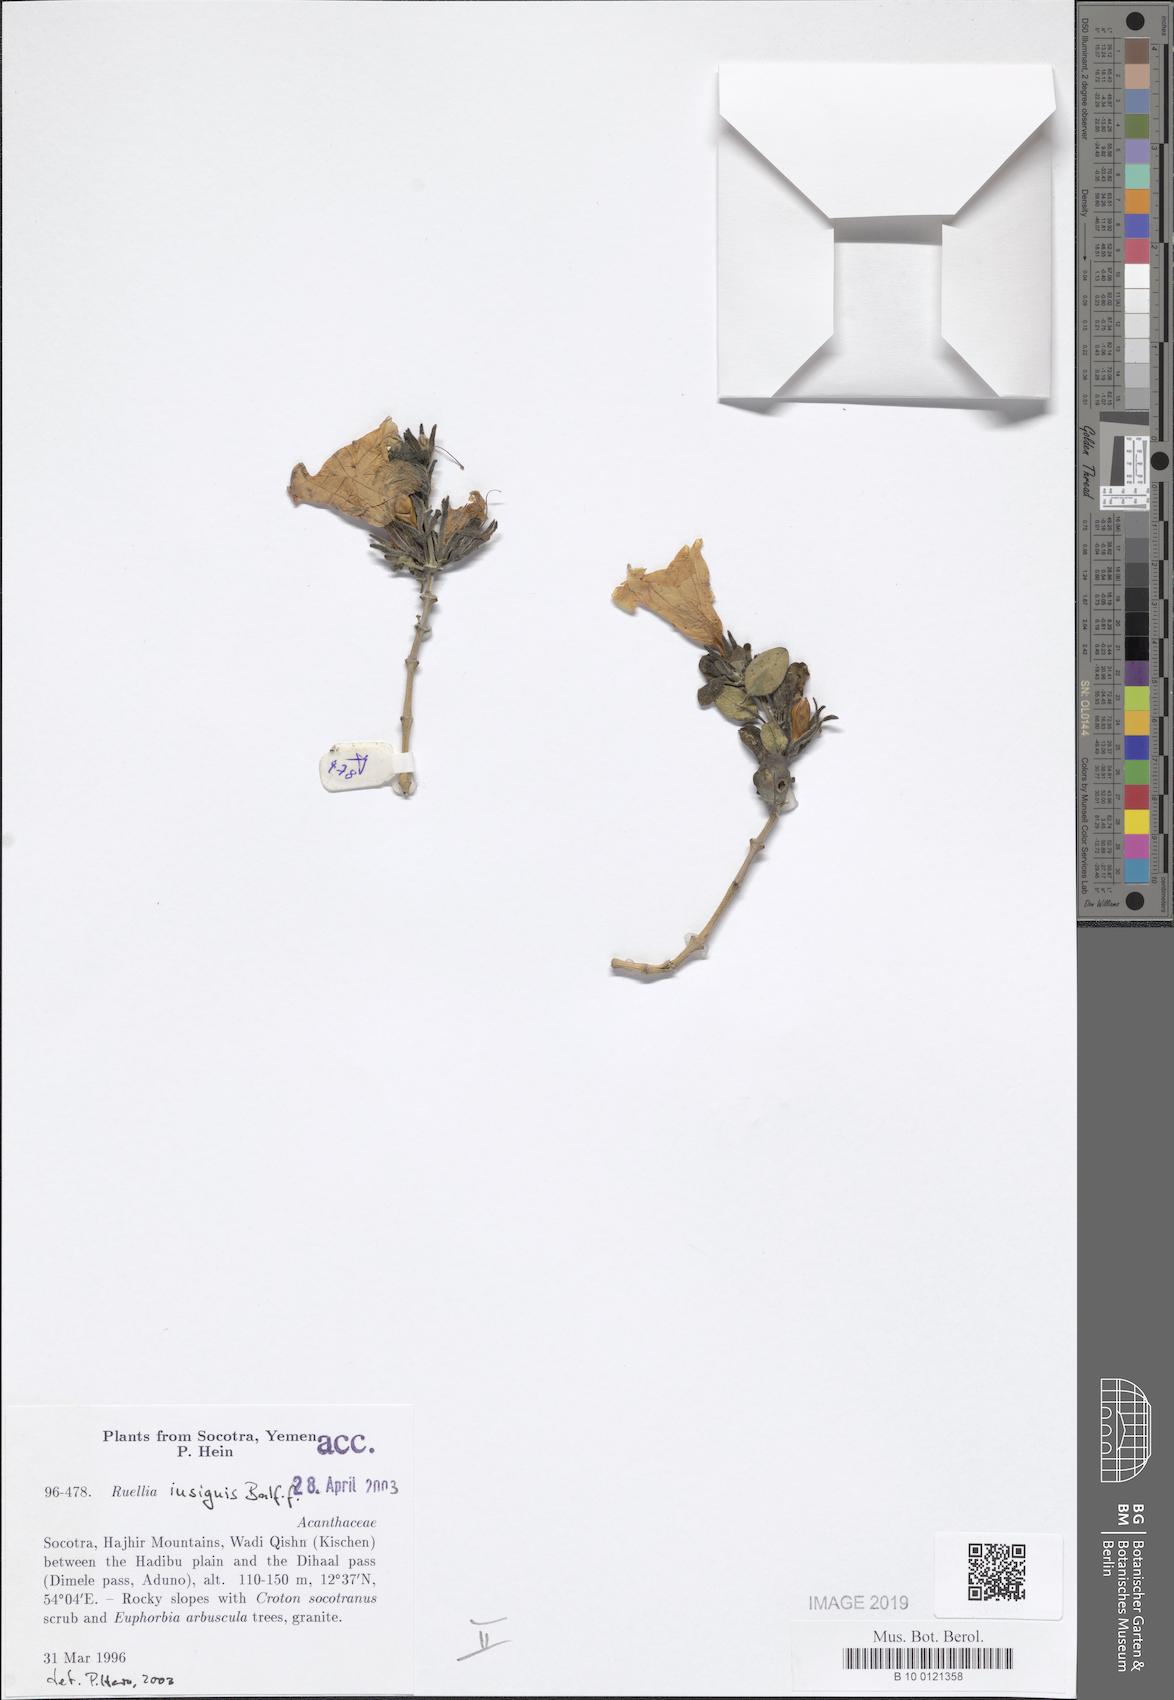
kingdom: Plantae
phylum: Tracheophyta
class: Magnoliopsida
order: Lamiales
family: Acanthaceae
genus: Ruellia
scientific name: Ruellia insignis
